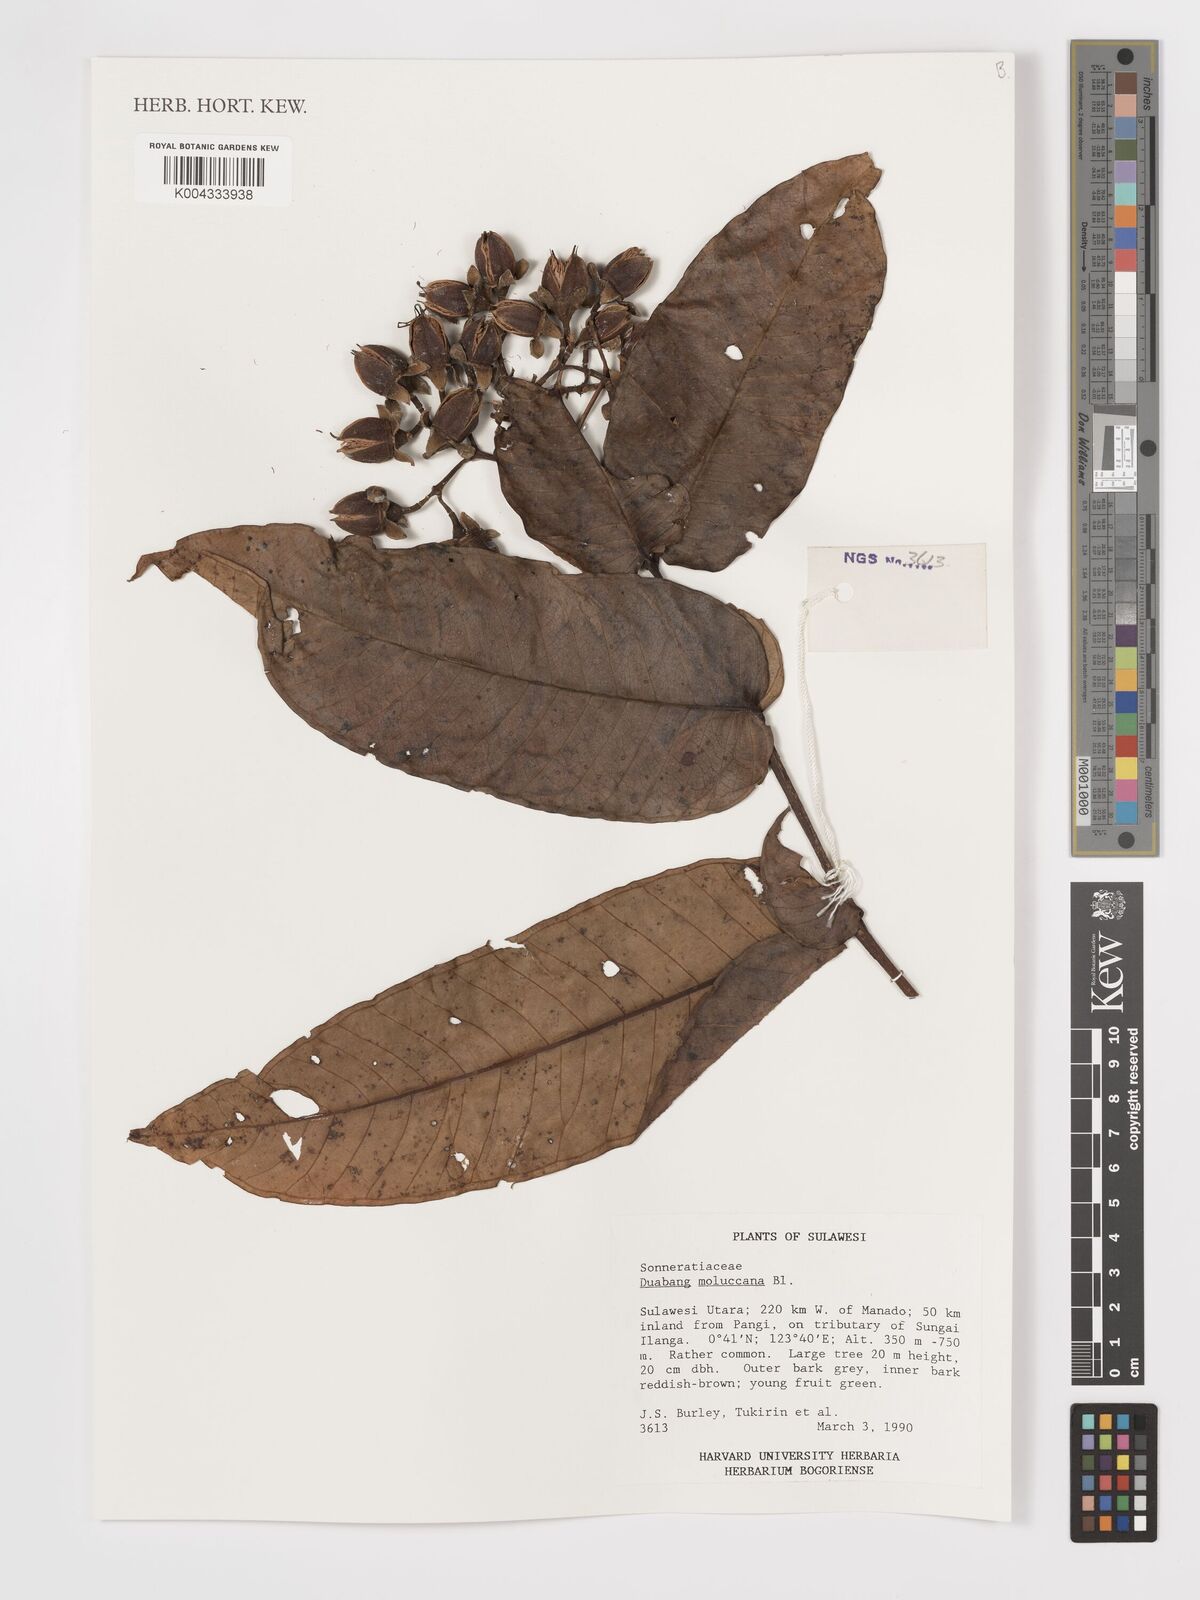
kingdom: Plantae
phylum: Tracheophyta
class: Magnoliopsida
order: Myrtales
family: Lythraceae
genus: Duabanga
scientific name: Duabanga moluccana
